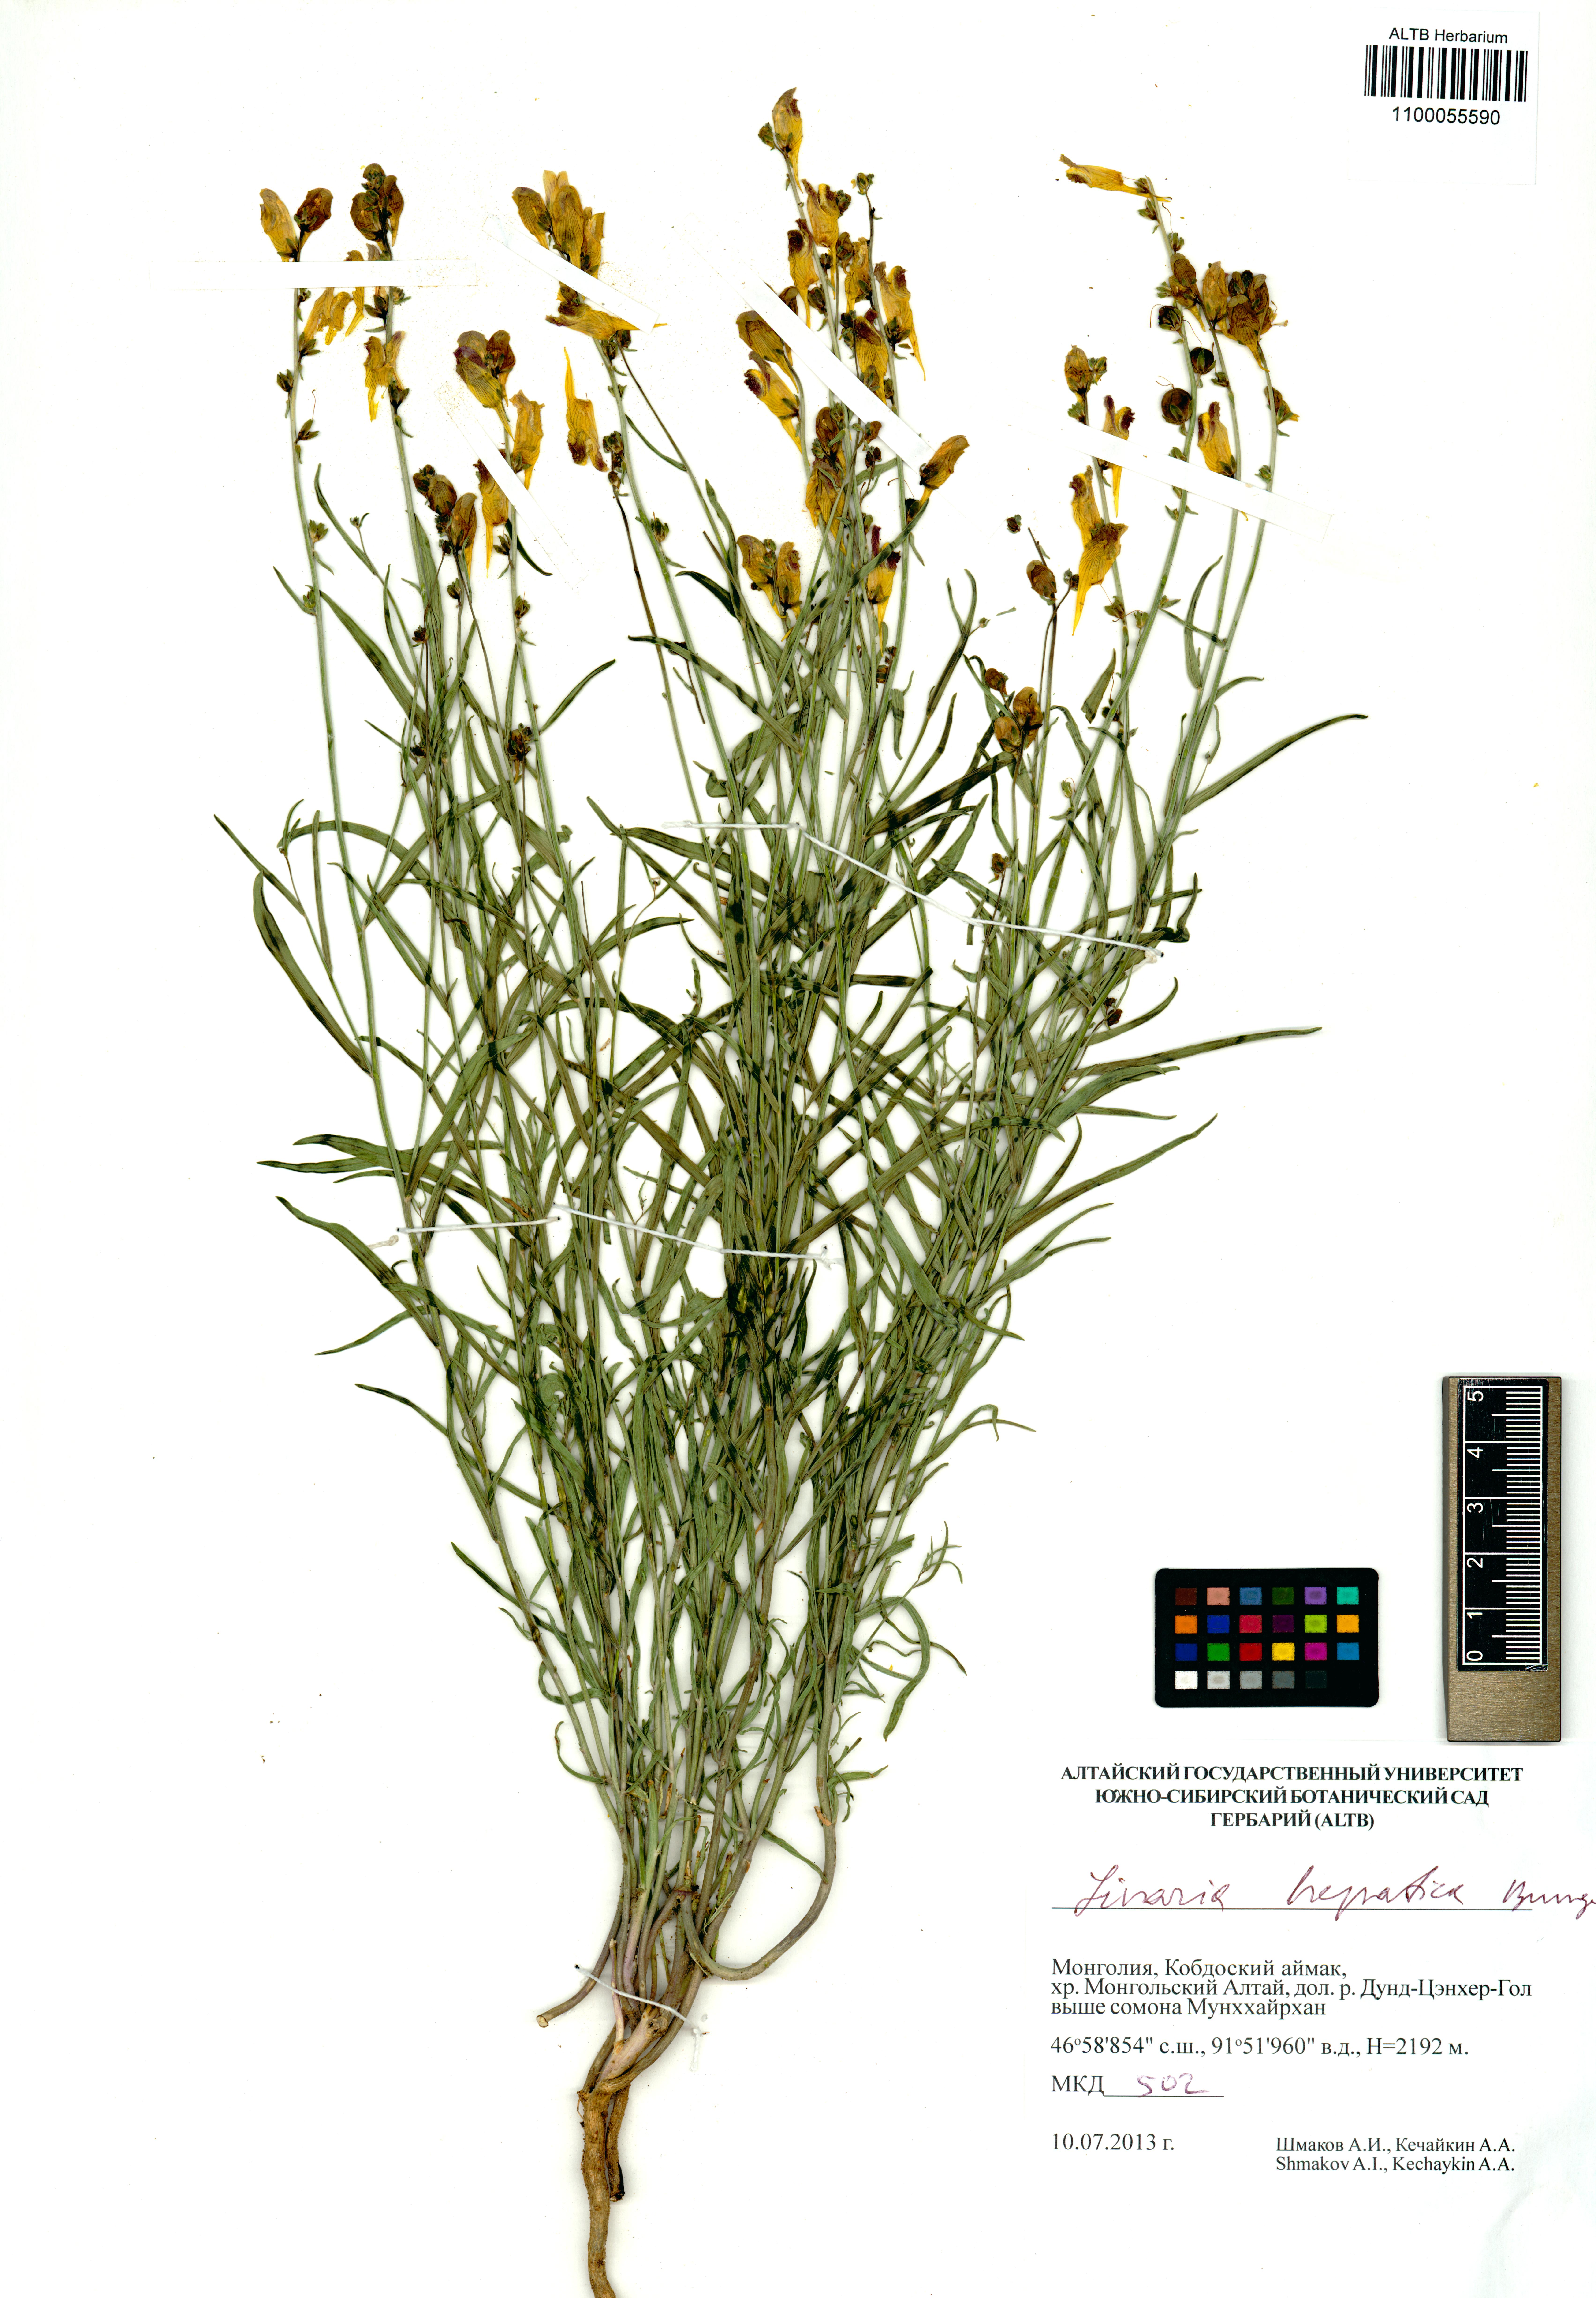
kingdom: Plantae
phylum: Tracheophyta
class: Magnoliopsida
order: Lamiales
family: Plantaginaceae
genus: Linaria
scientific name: Linaria hepatica
